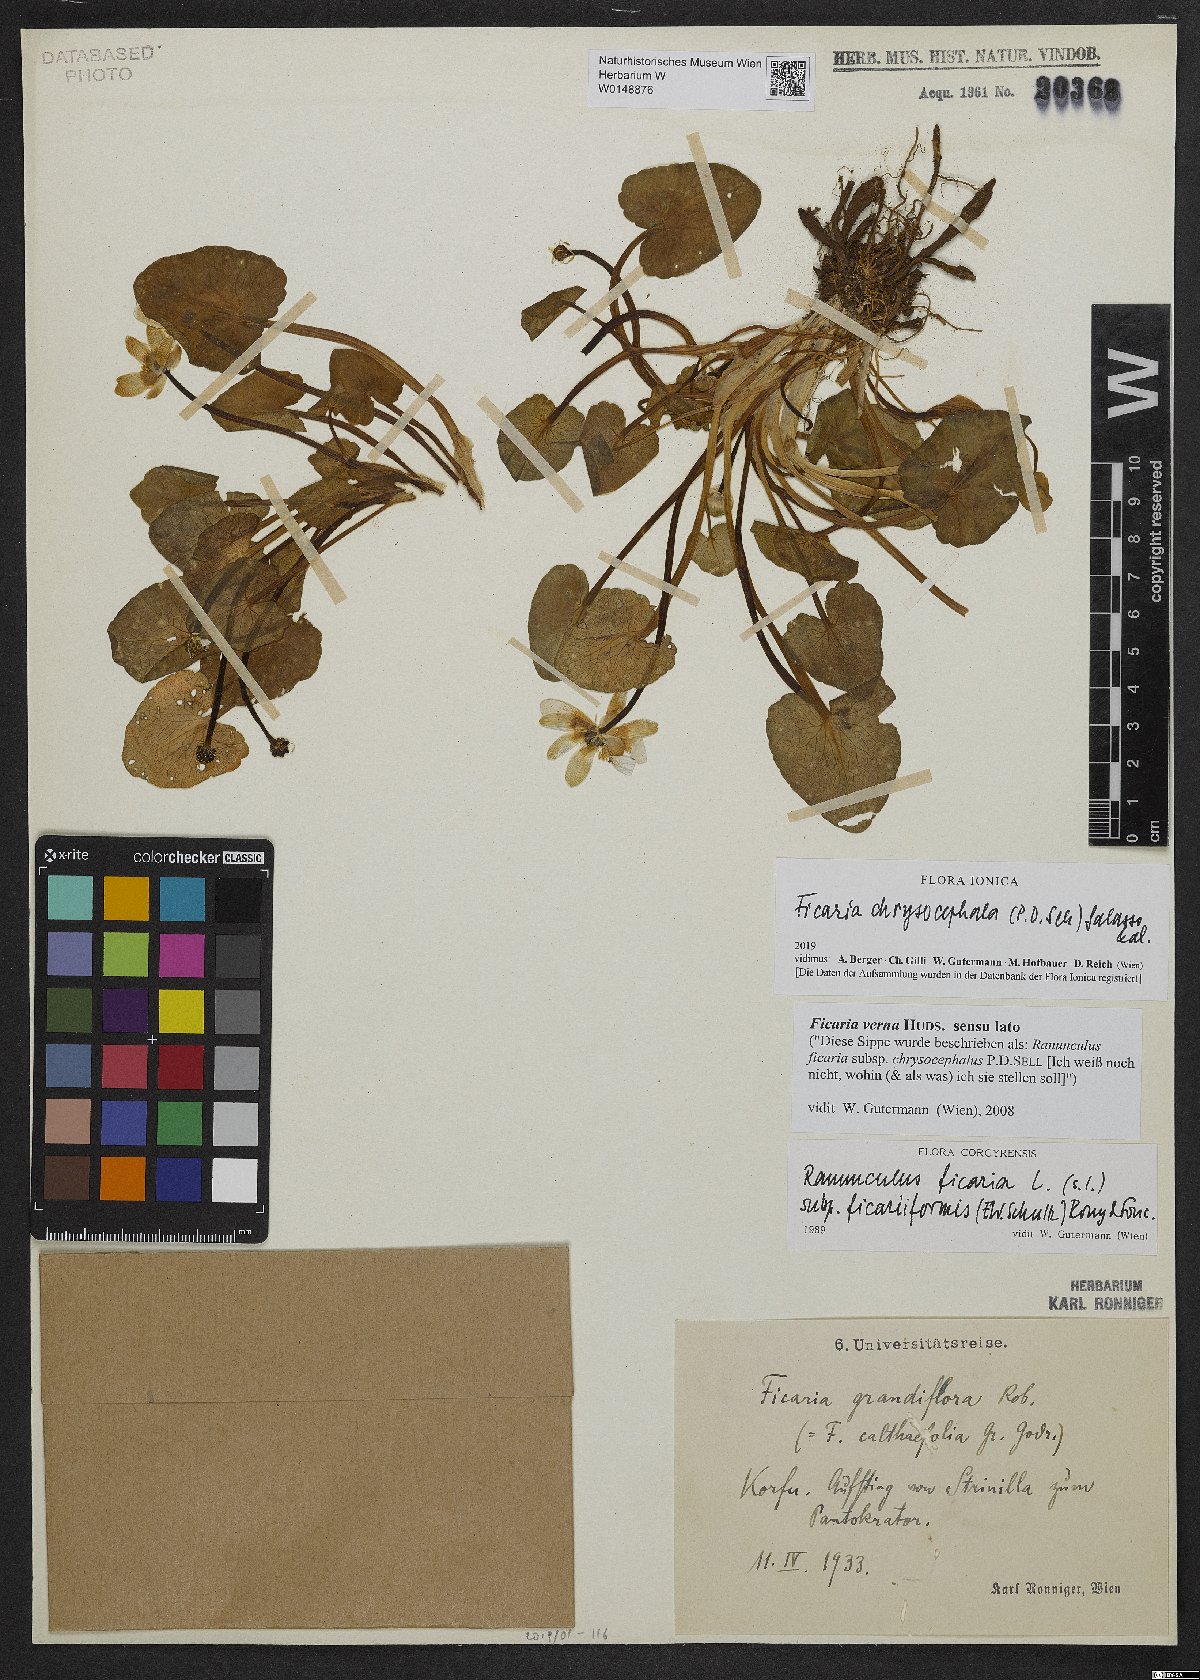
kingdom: Plantae
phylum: Tracheophyta
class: Magnoliopsida
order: Ranunculales
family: Ranunculaceae
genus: Ficaria
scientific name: Ficaria chrysocephala
